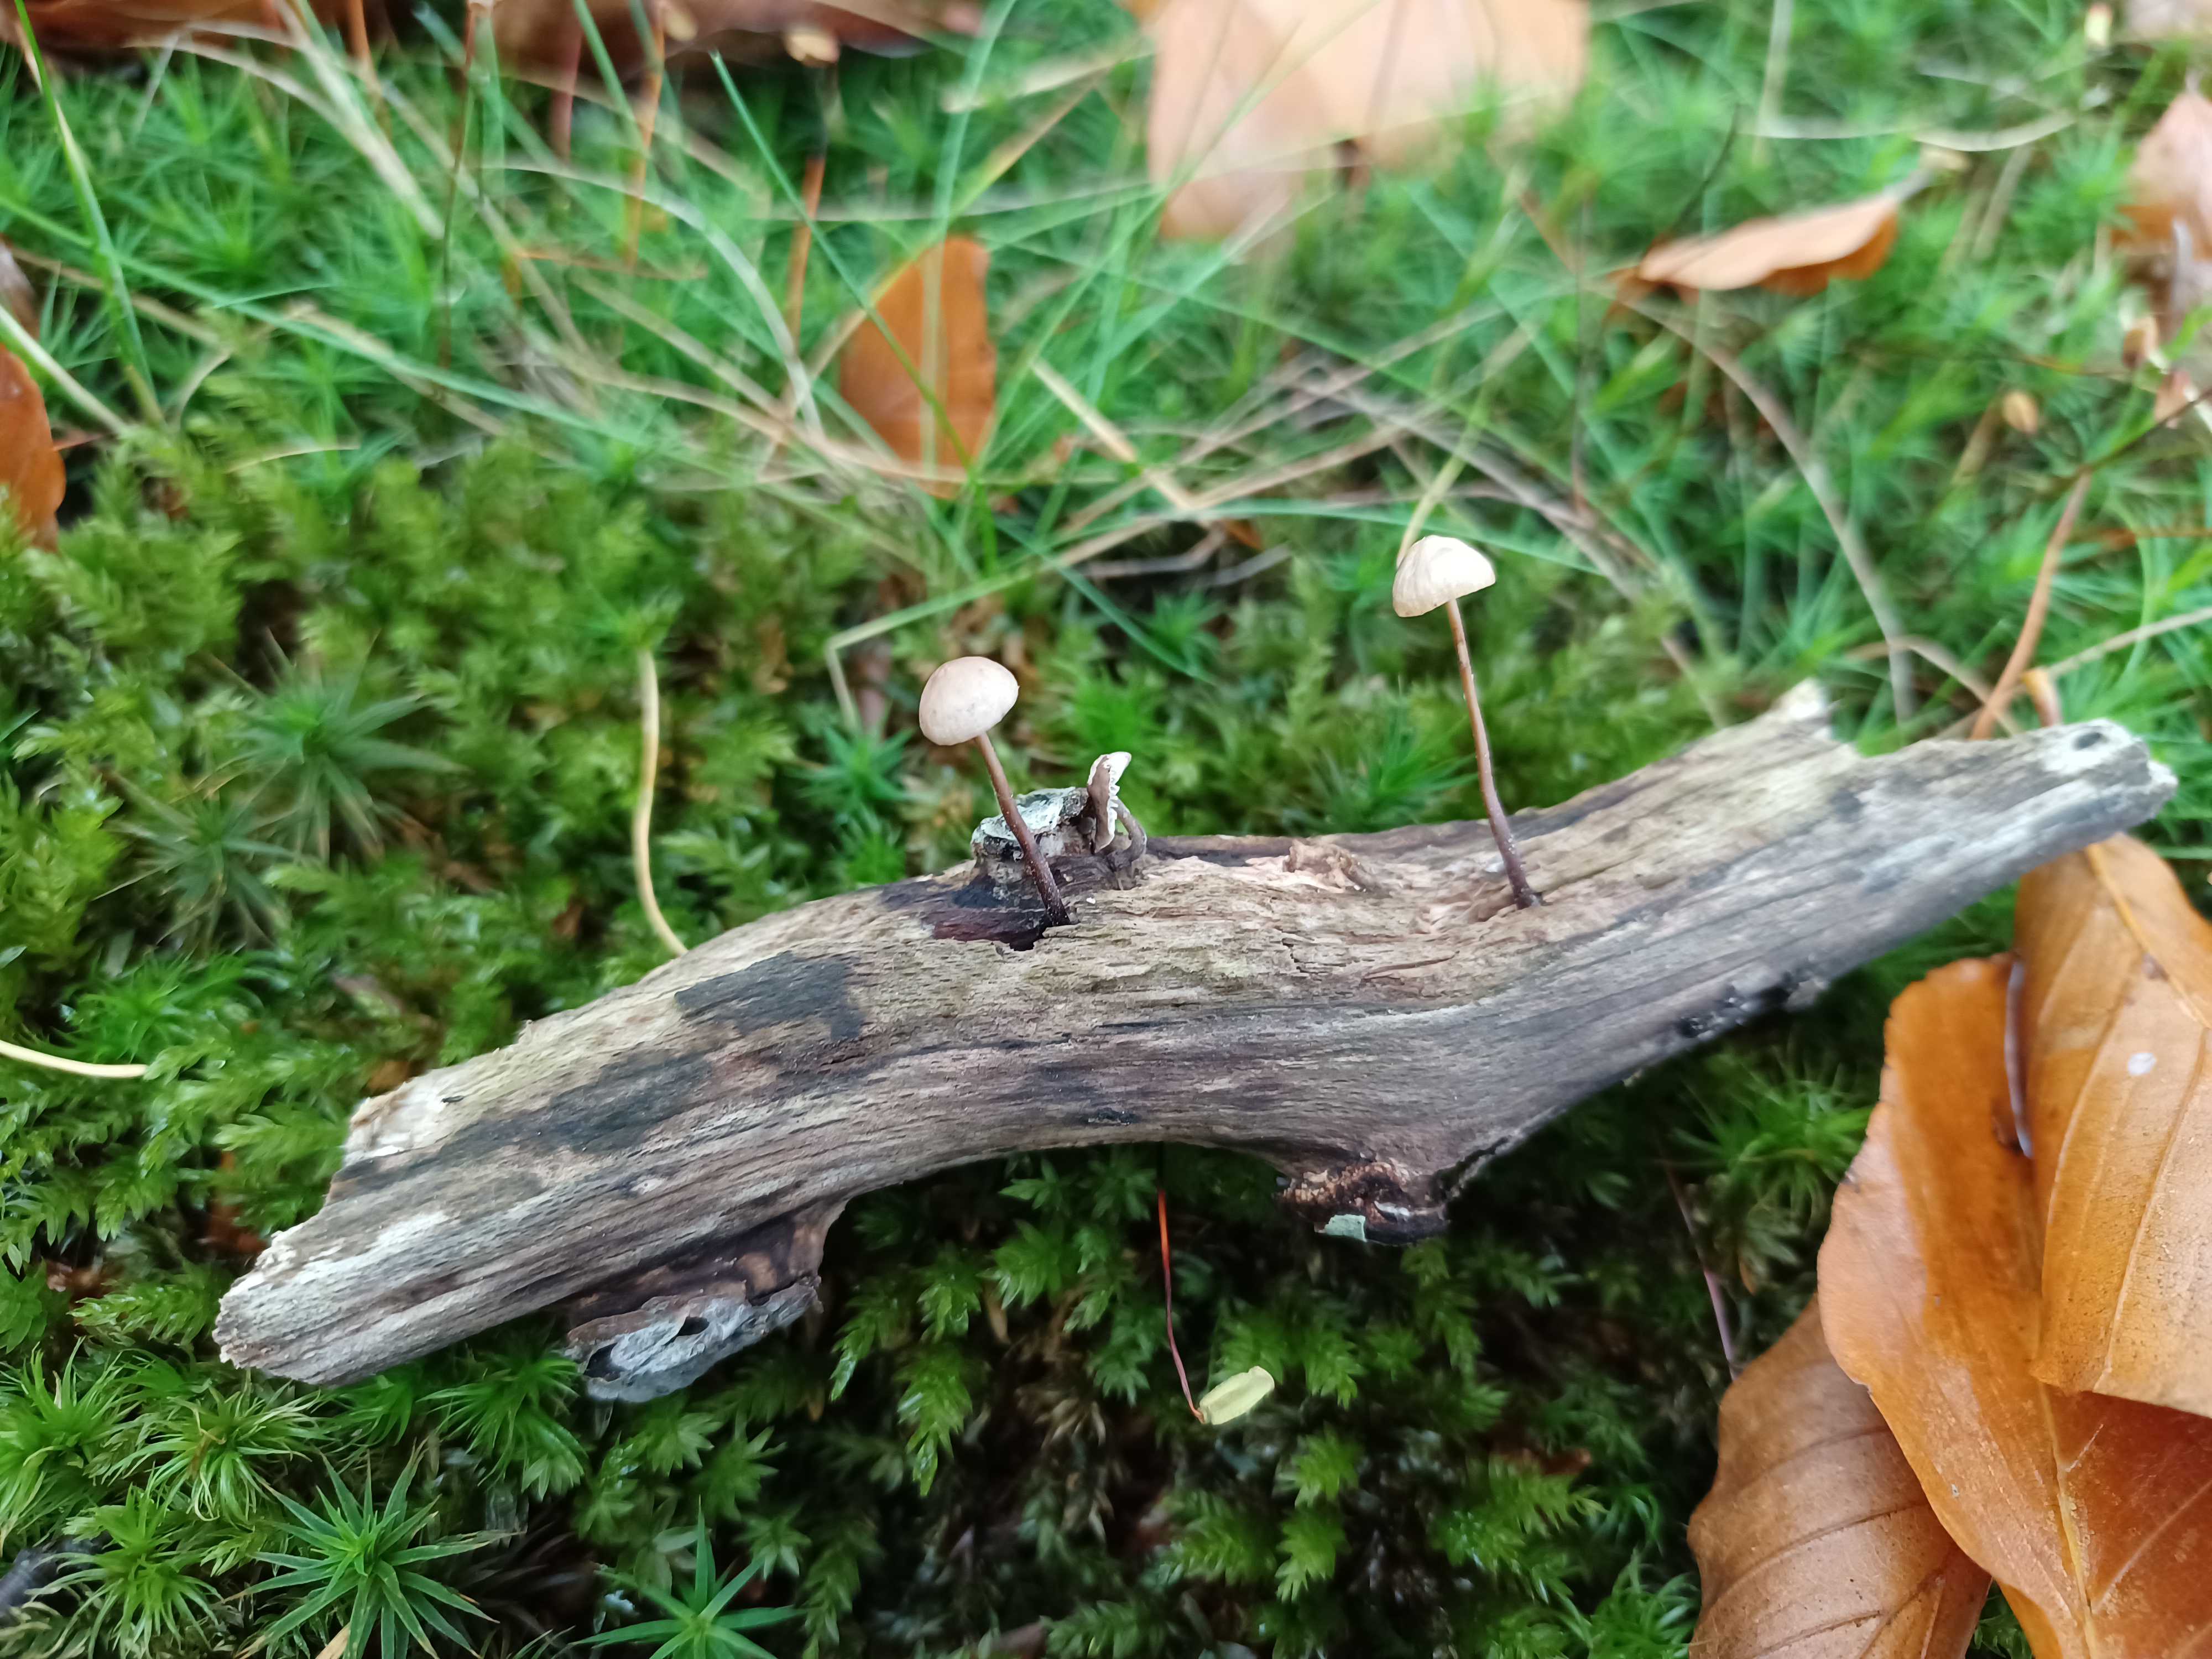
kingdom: Fungi
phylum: Basidiomycota
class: Agaricomycetes
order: Agaricales
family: Omphalotaceae
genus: Mycetinis
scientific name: Mycetinis alliaceus
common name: stor løghat
